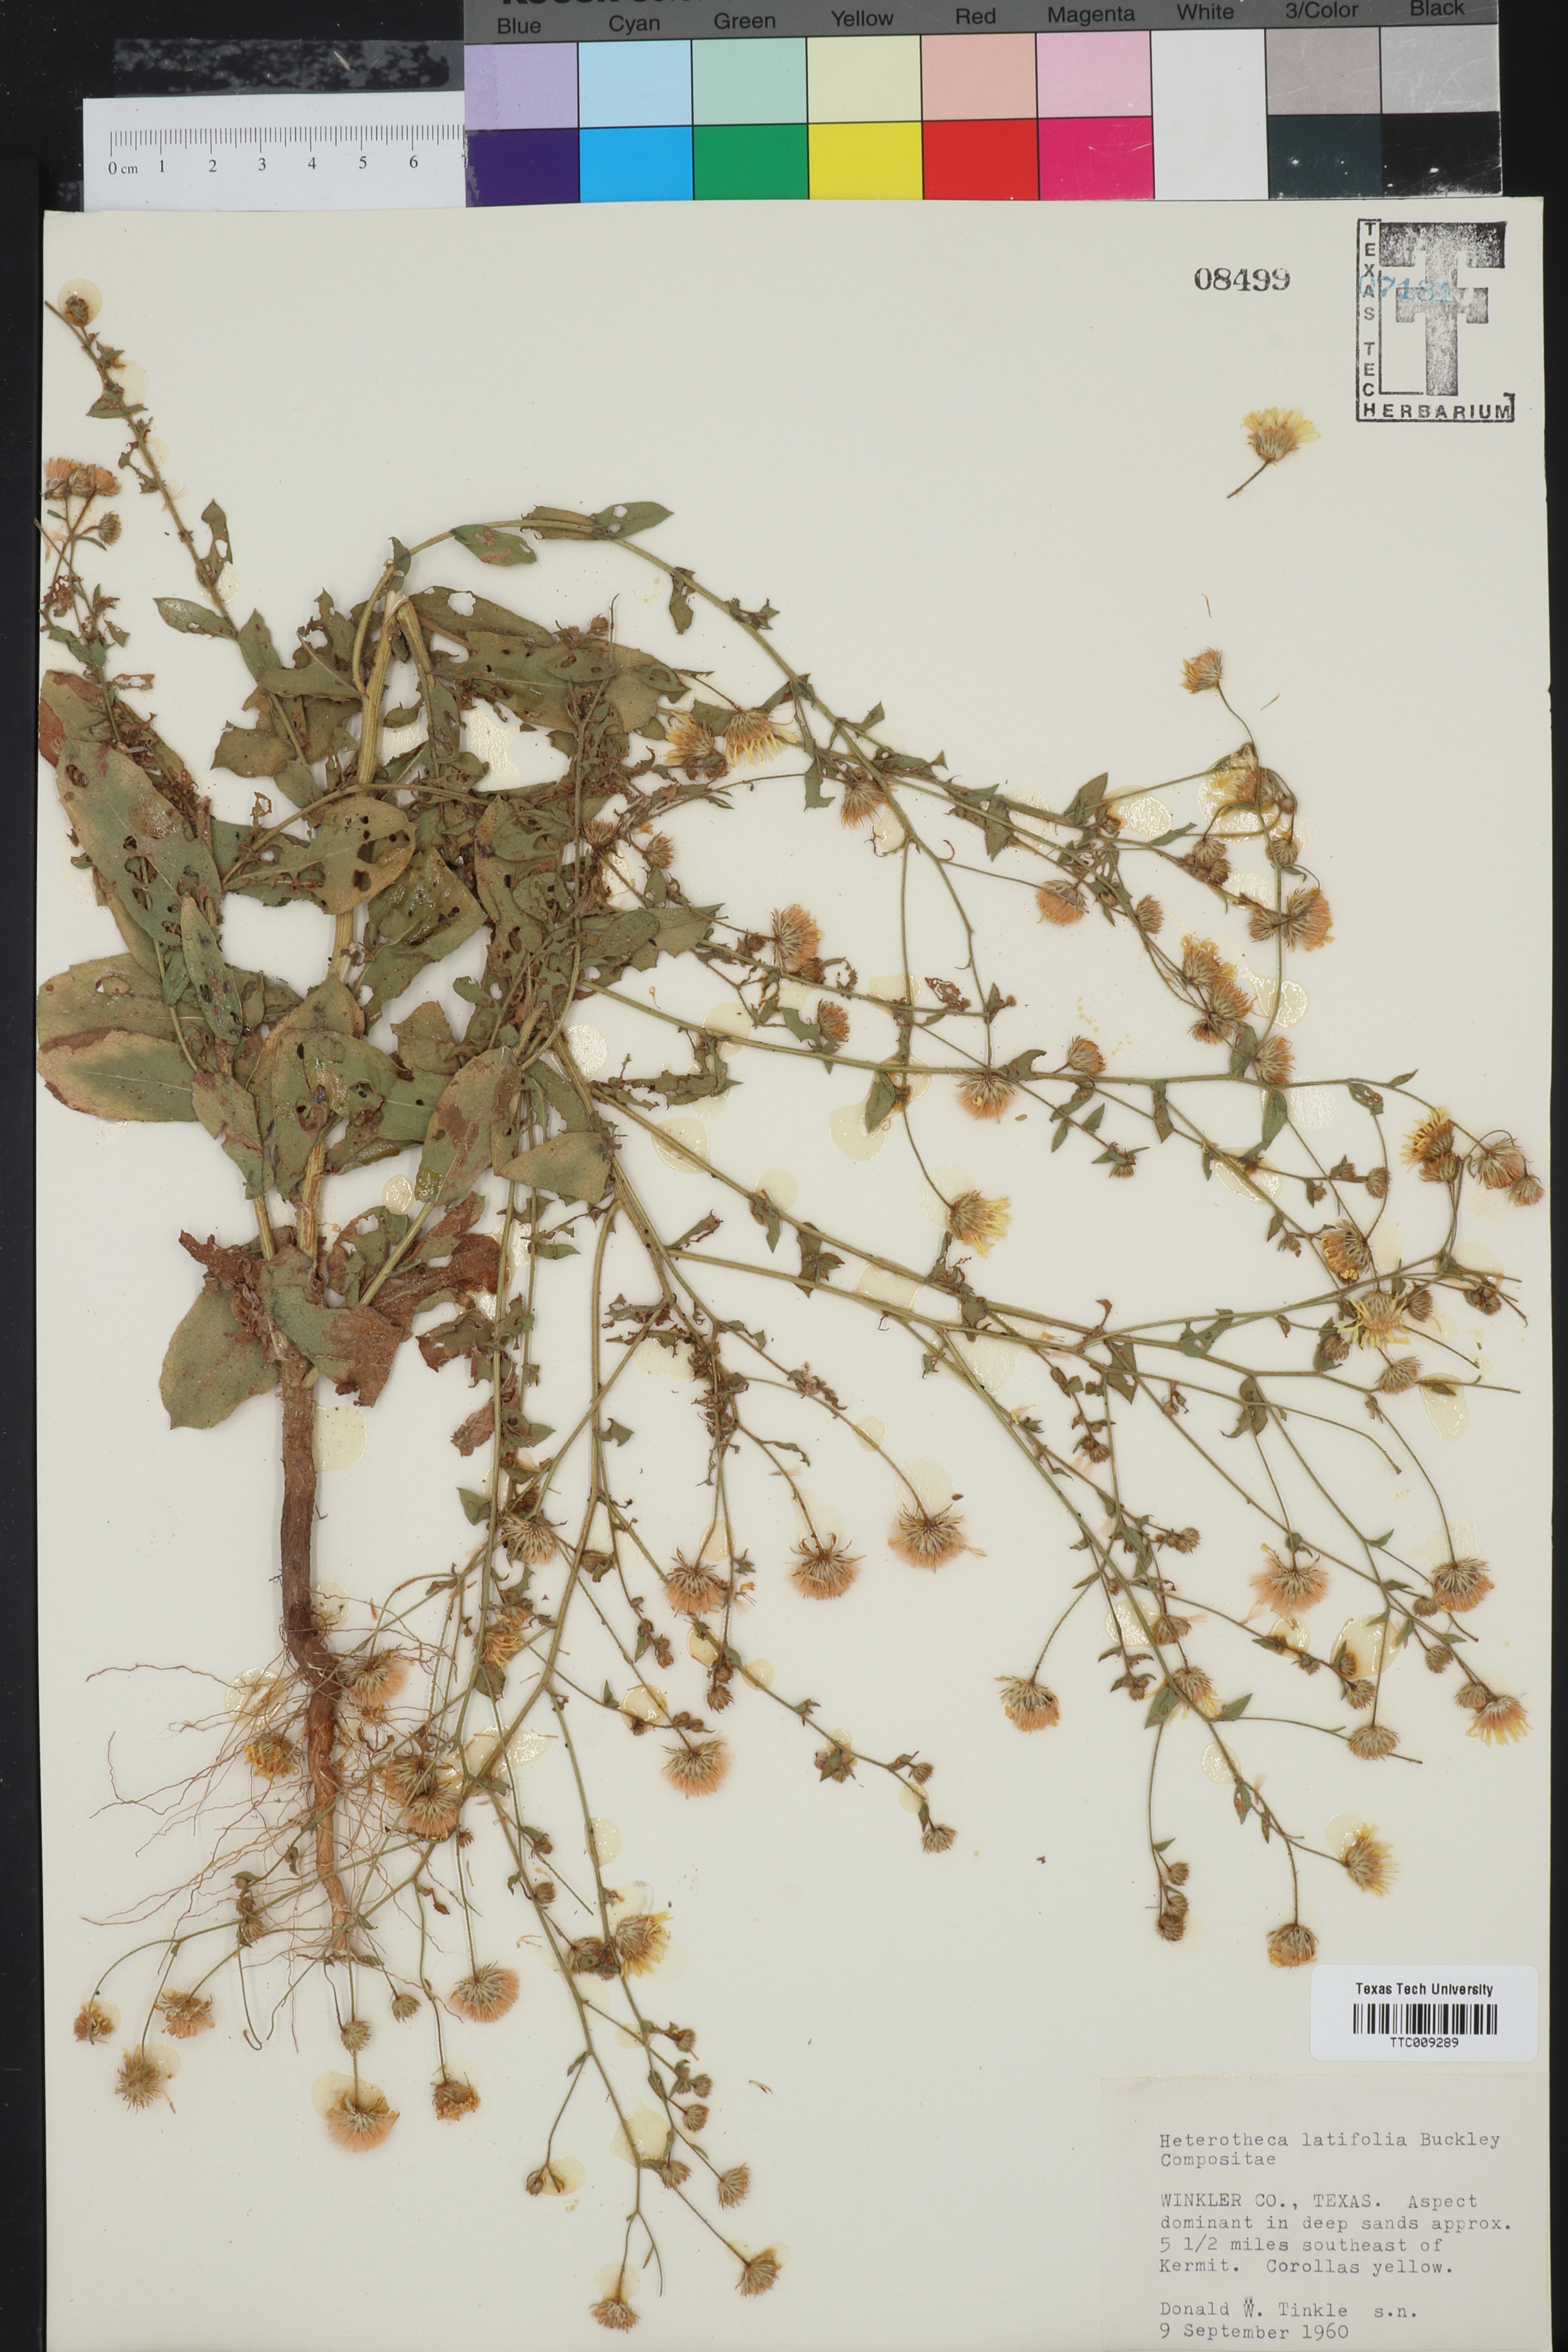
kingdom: Plantae
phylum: Tracheophyta
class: Magnoliopsida
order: Asterales
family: Asteraceae
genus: Heterotheca
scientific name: Heterotheca subaxillaris
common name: Camphorweed
